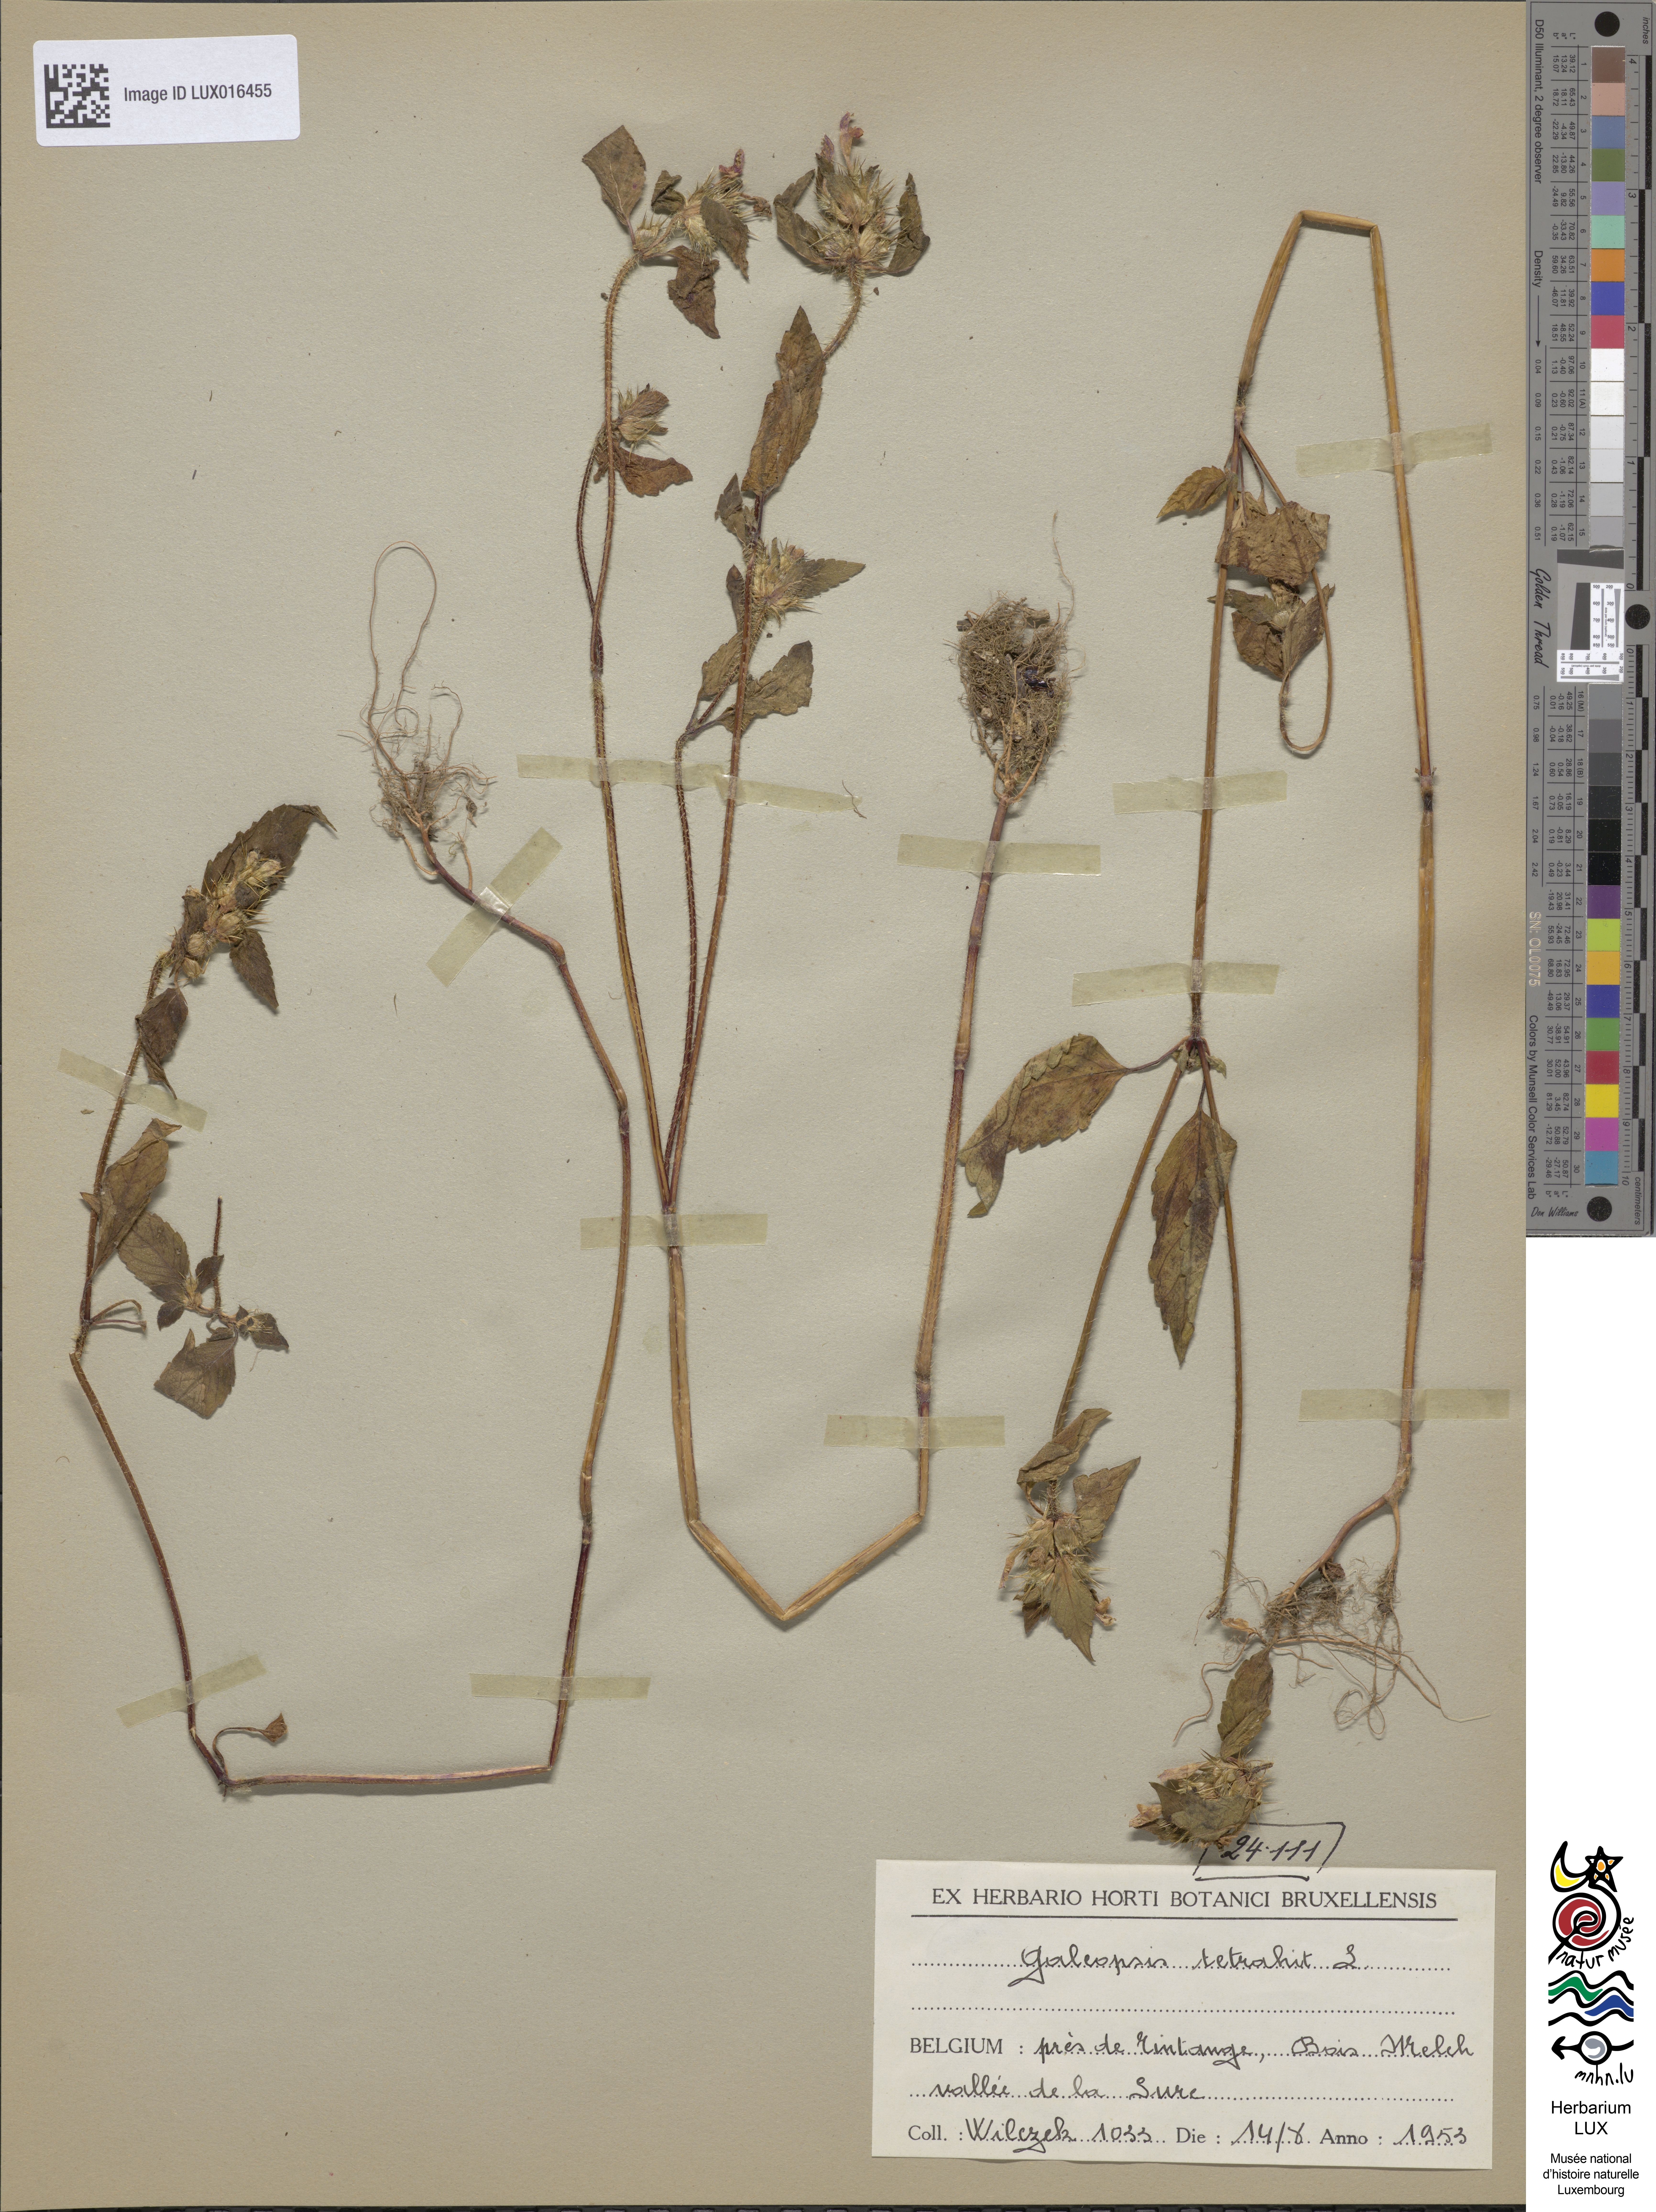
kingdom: Plantae
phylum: Tracheophyta
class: Magnoliopsida
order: Lamiales
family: Lamiaceae
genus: Galeopsis
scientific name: Galeopsis tetrahit
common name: Common hemp-nettle
